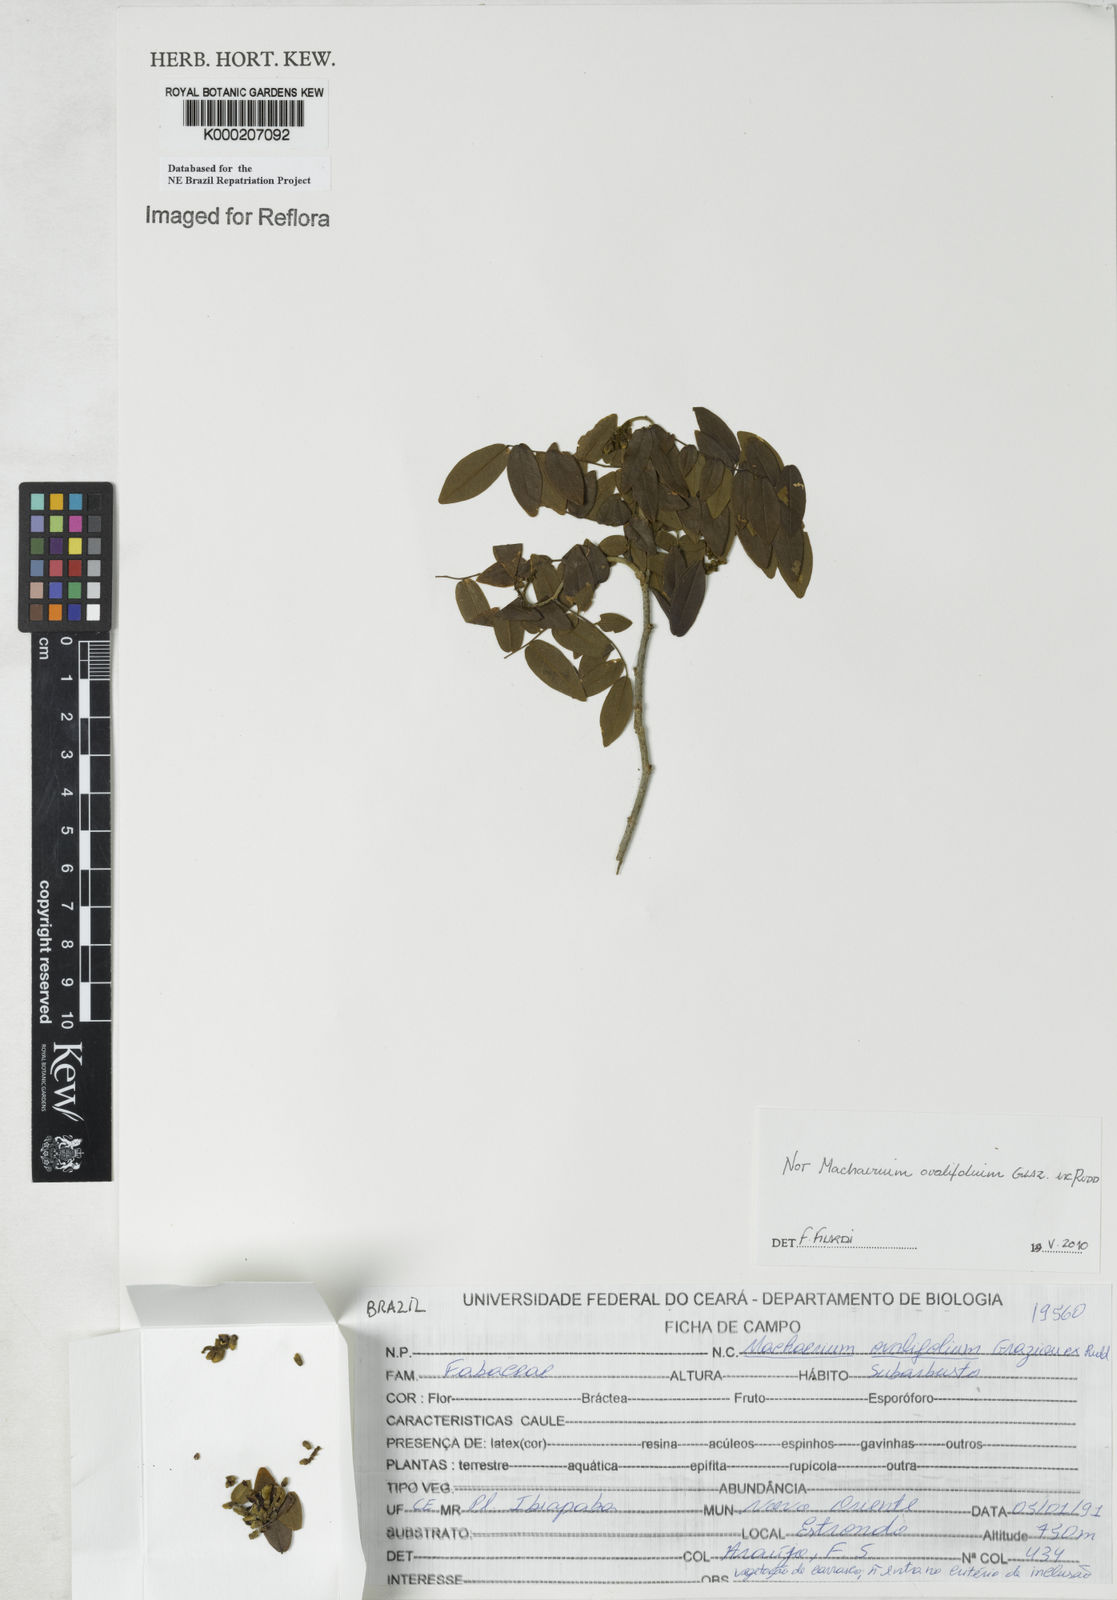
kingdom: Plantae
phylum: Tracheophyta
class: Magnoliopsida
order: Fabales
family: Fabaceae
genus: Machaerium
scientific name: Machaerium ovalifolium
